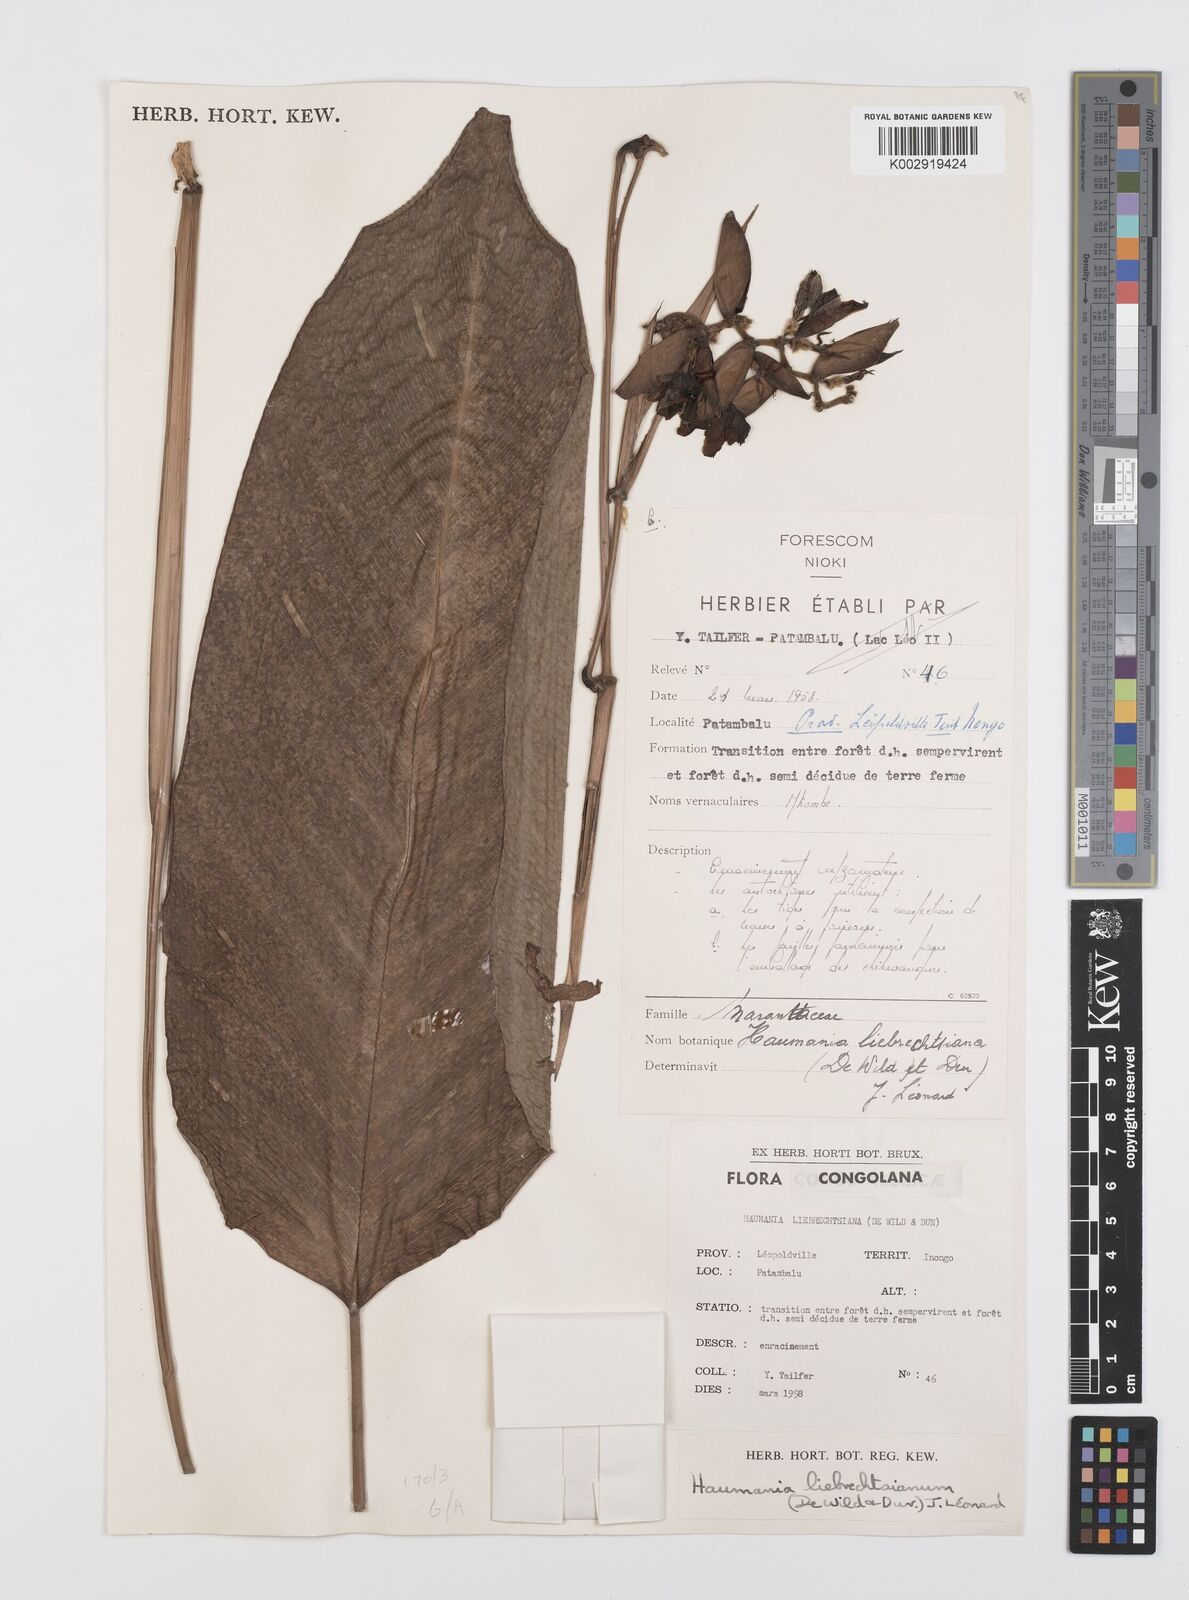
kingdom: Plantae
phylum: Tracheophyta
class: Liliopsida
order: Zingiberales
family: Marantaceae
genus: Haumania
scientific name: Haumania liebrechtsiana
